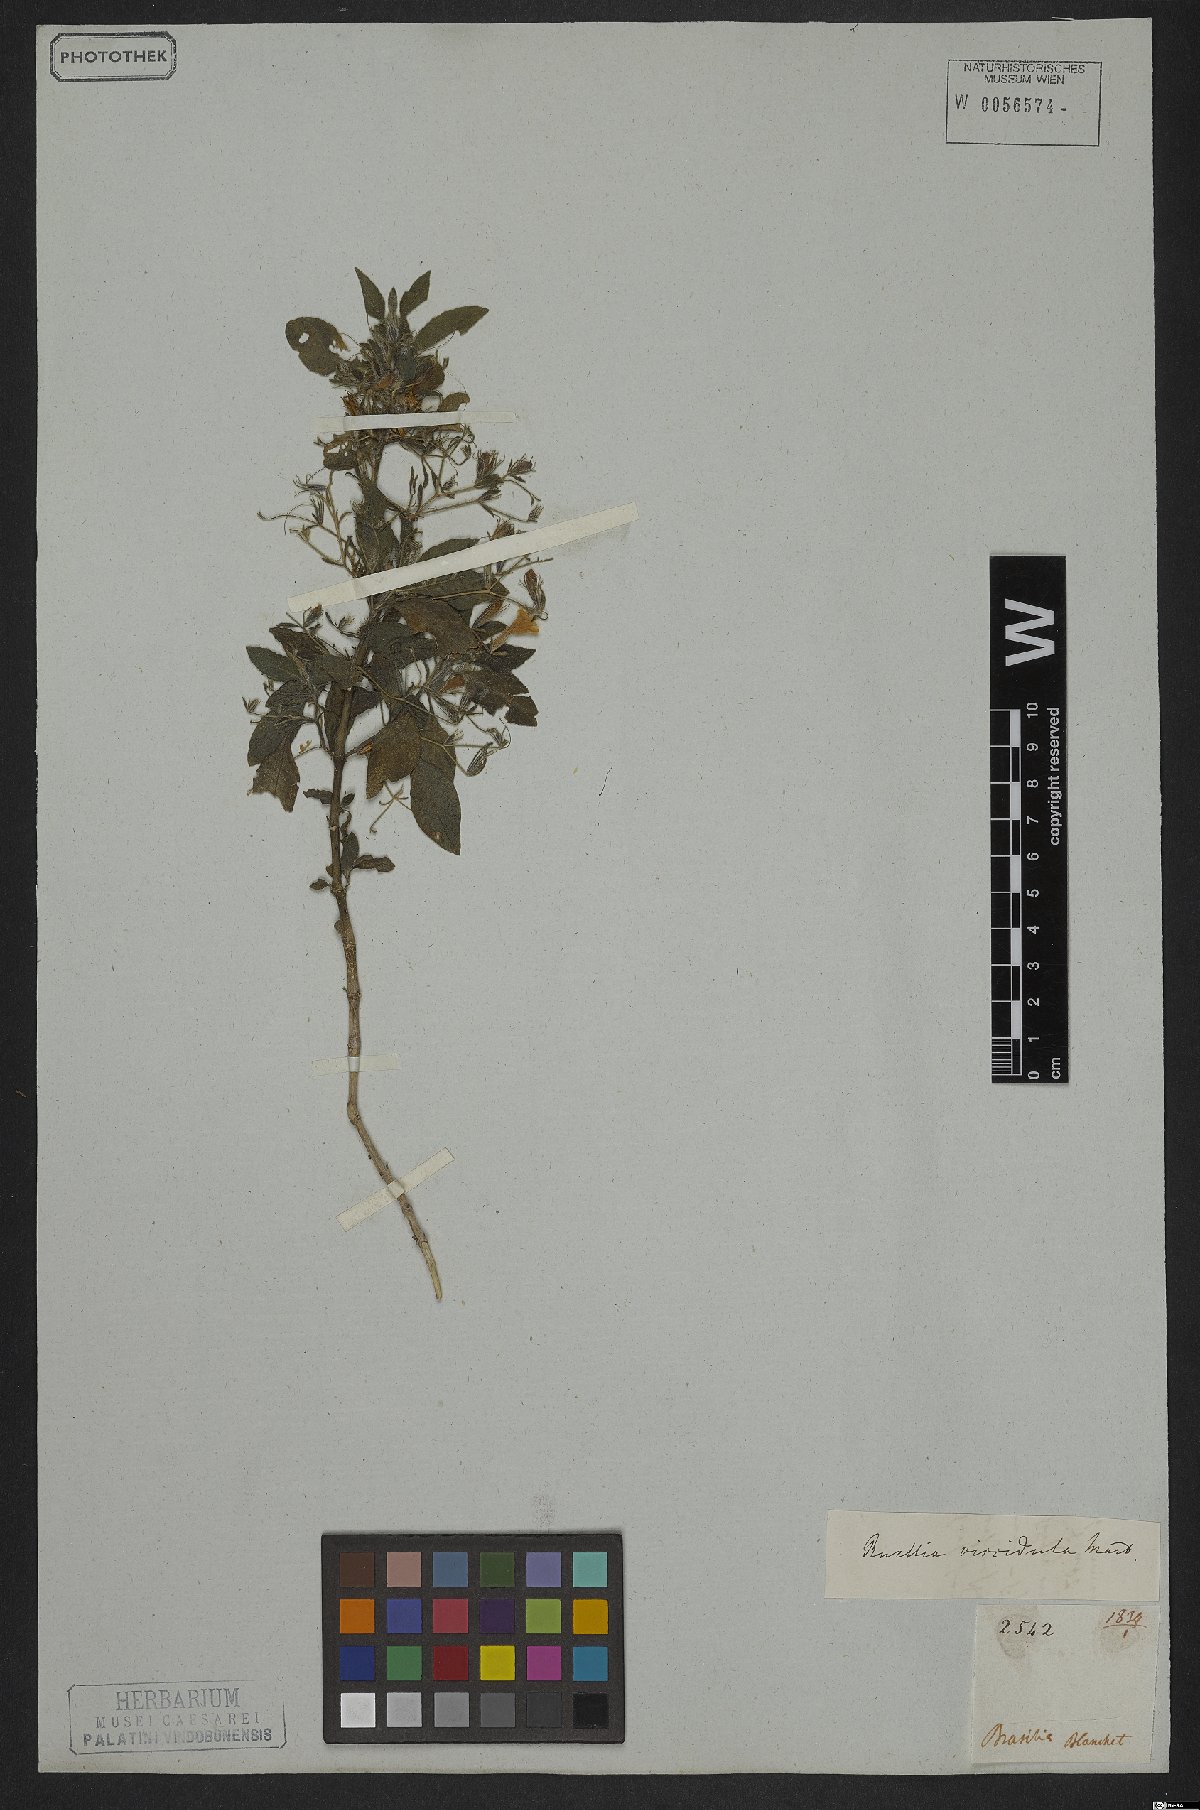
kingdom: Plantae
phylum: Tracheophyta
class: Magnoliopsida
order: Lamiales
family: Acanthaceae
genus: Ruellia
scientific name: Ruellia viscidula
